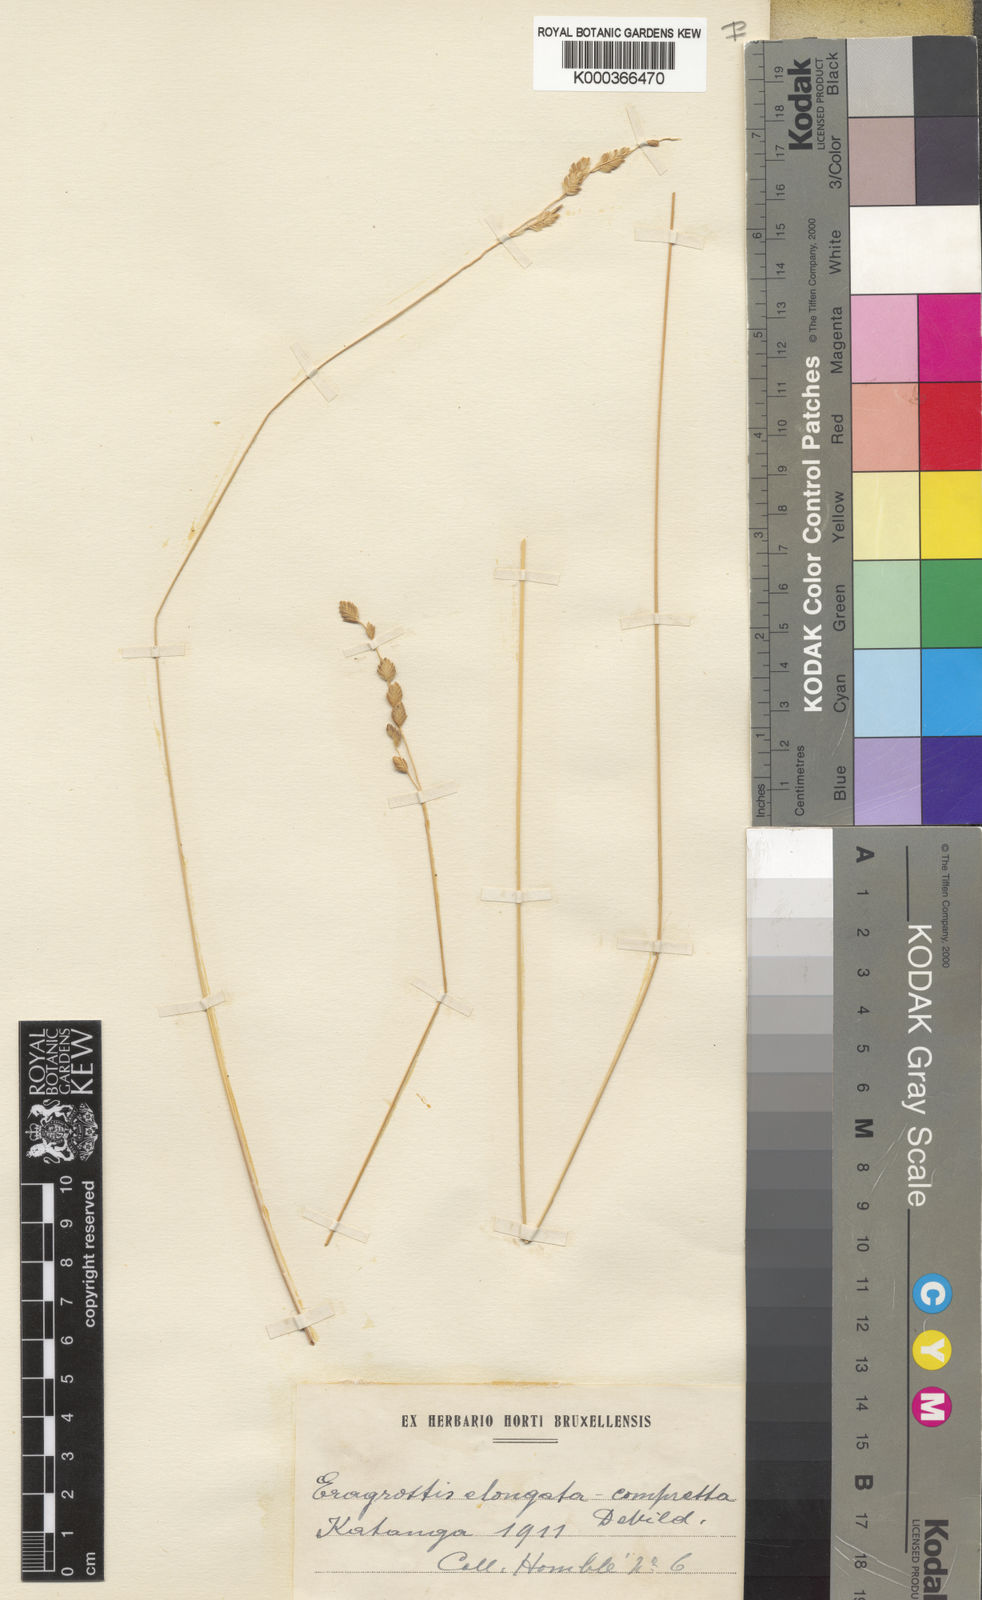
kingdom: Plantae
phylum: Tracheophyta
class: Liliopsida
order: Poales
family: Poaceae
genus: Eragrostis
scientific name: Eragrostis capensis
